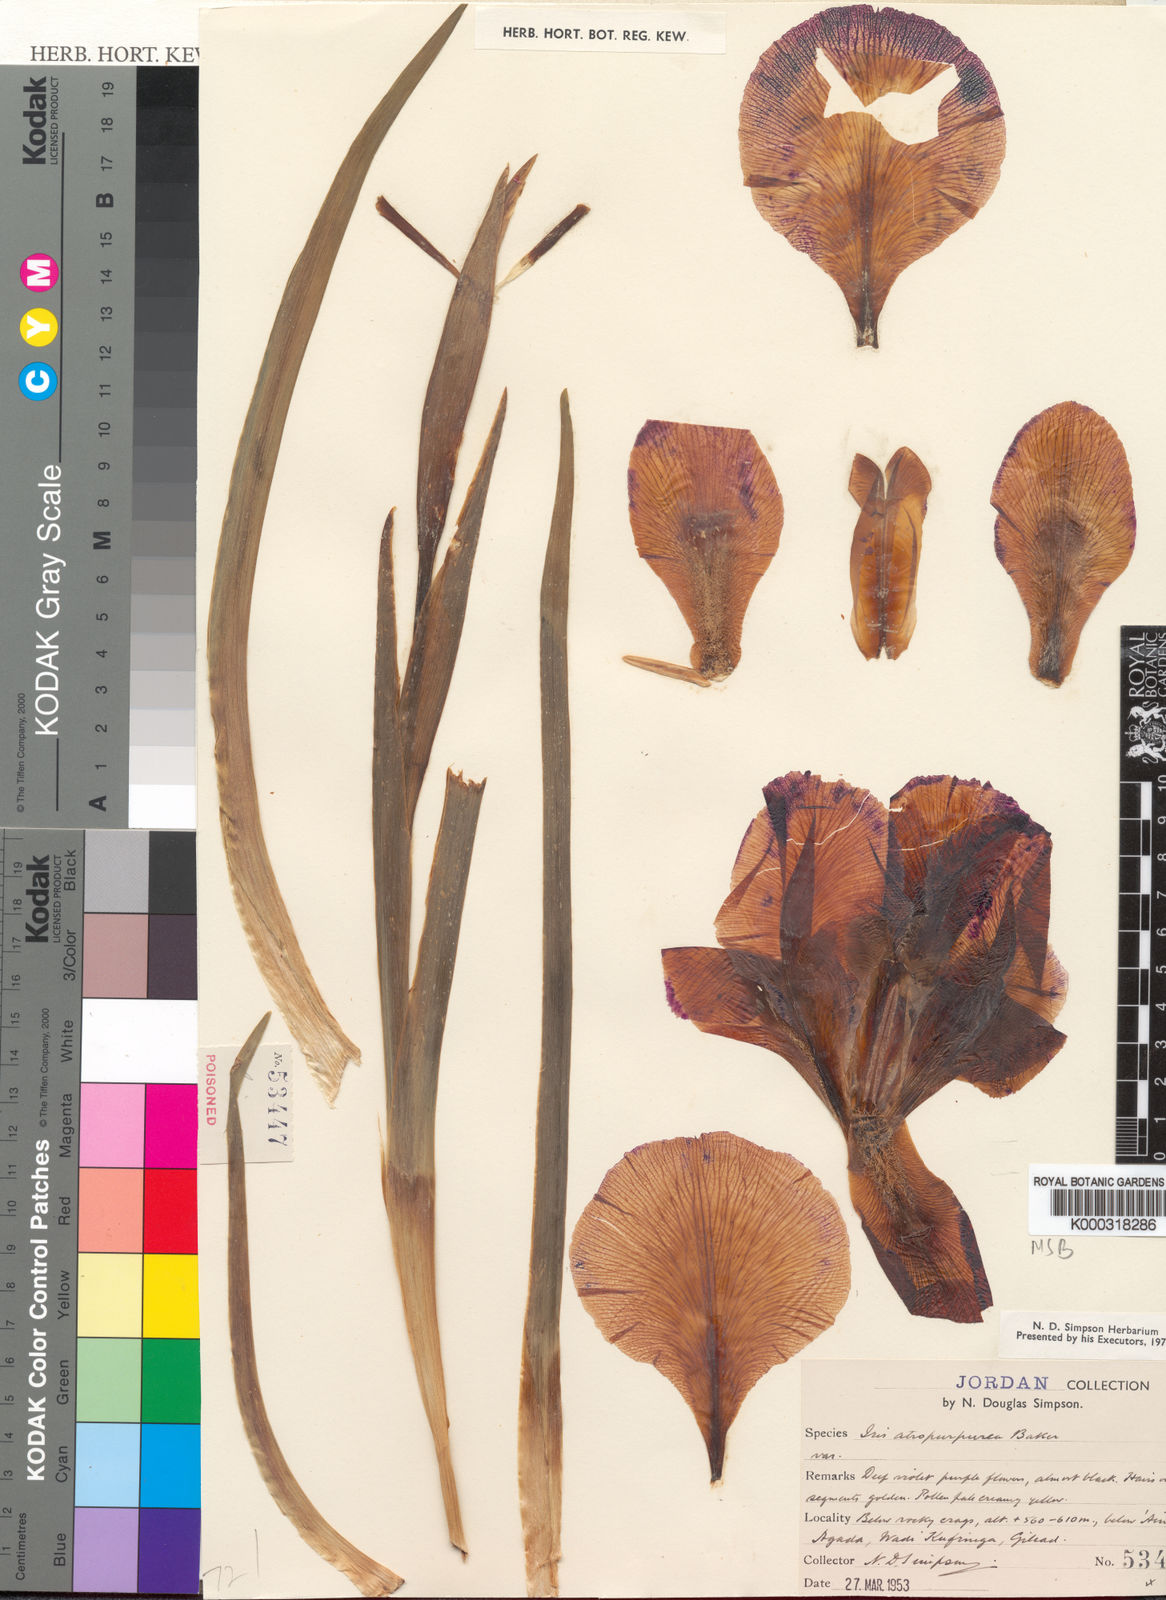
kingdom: Plantae
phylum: Tracheophyta
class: Liliopsida
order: Asparagales
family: Iridaceae
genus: Iris
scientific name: Iris atropurpurea
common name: Coastal iris
